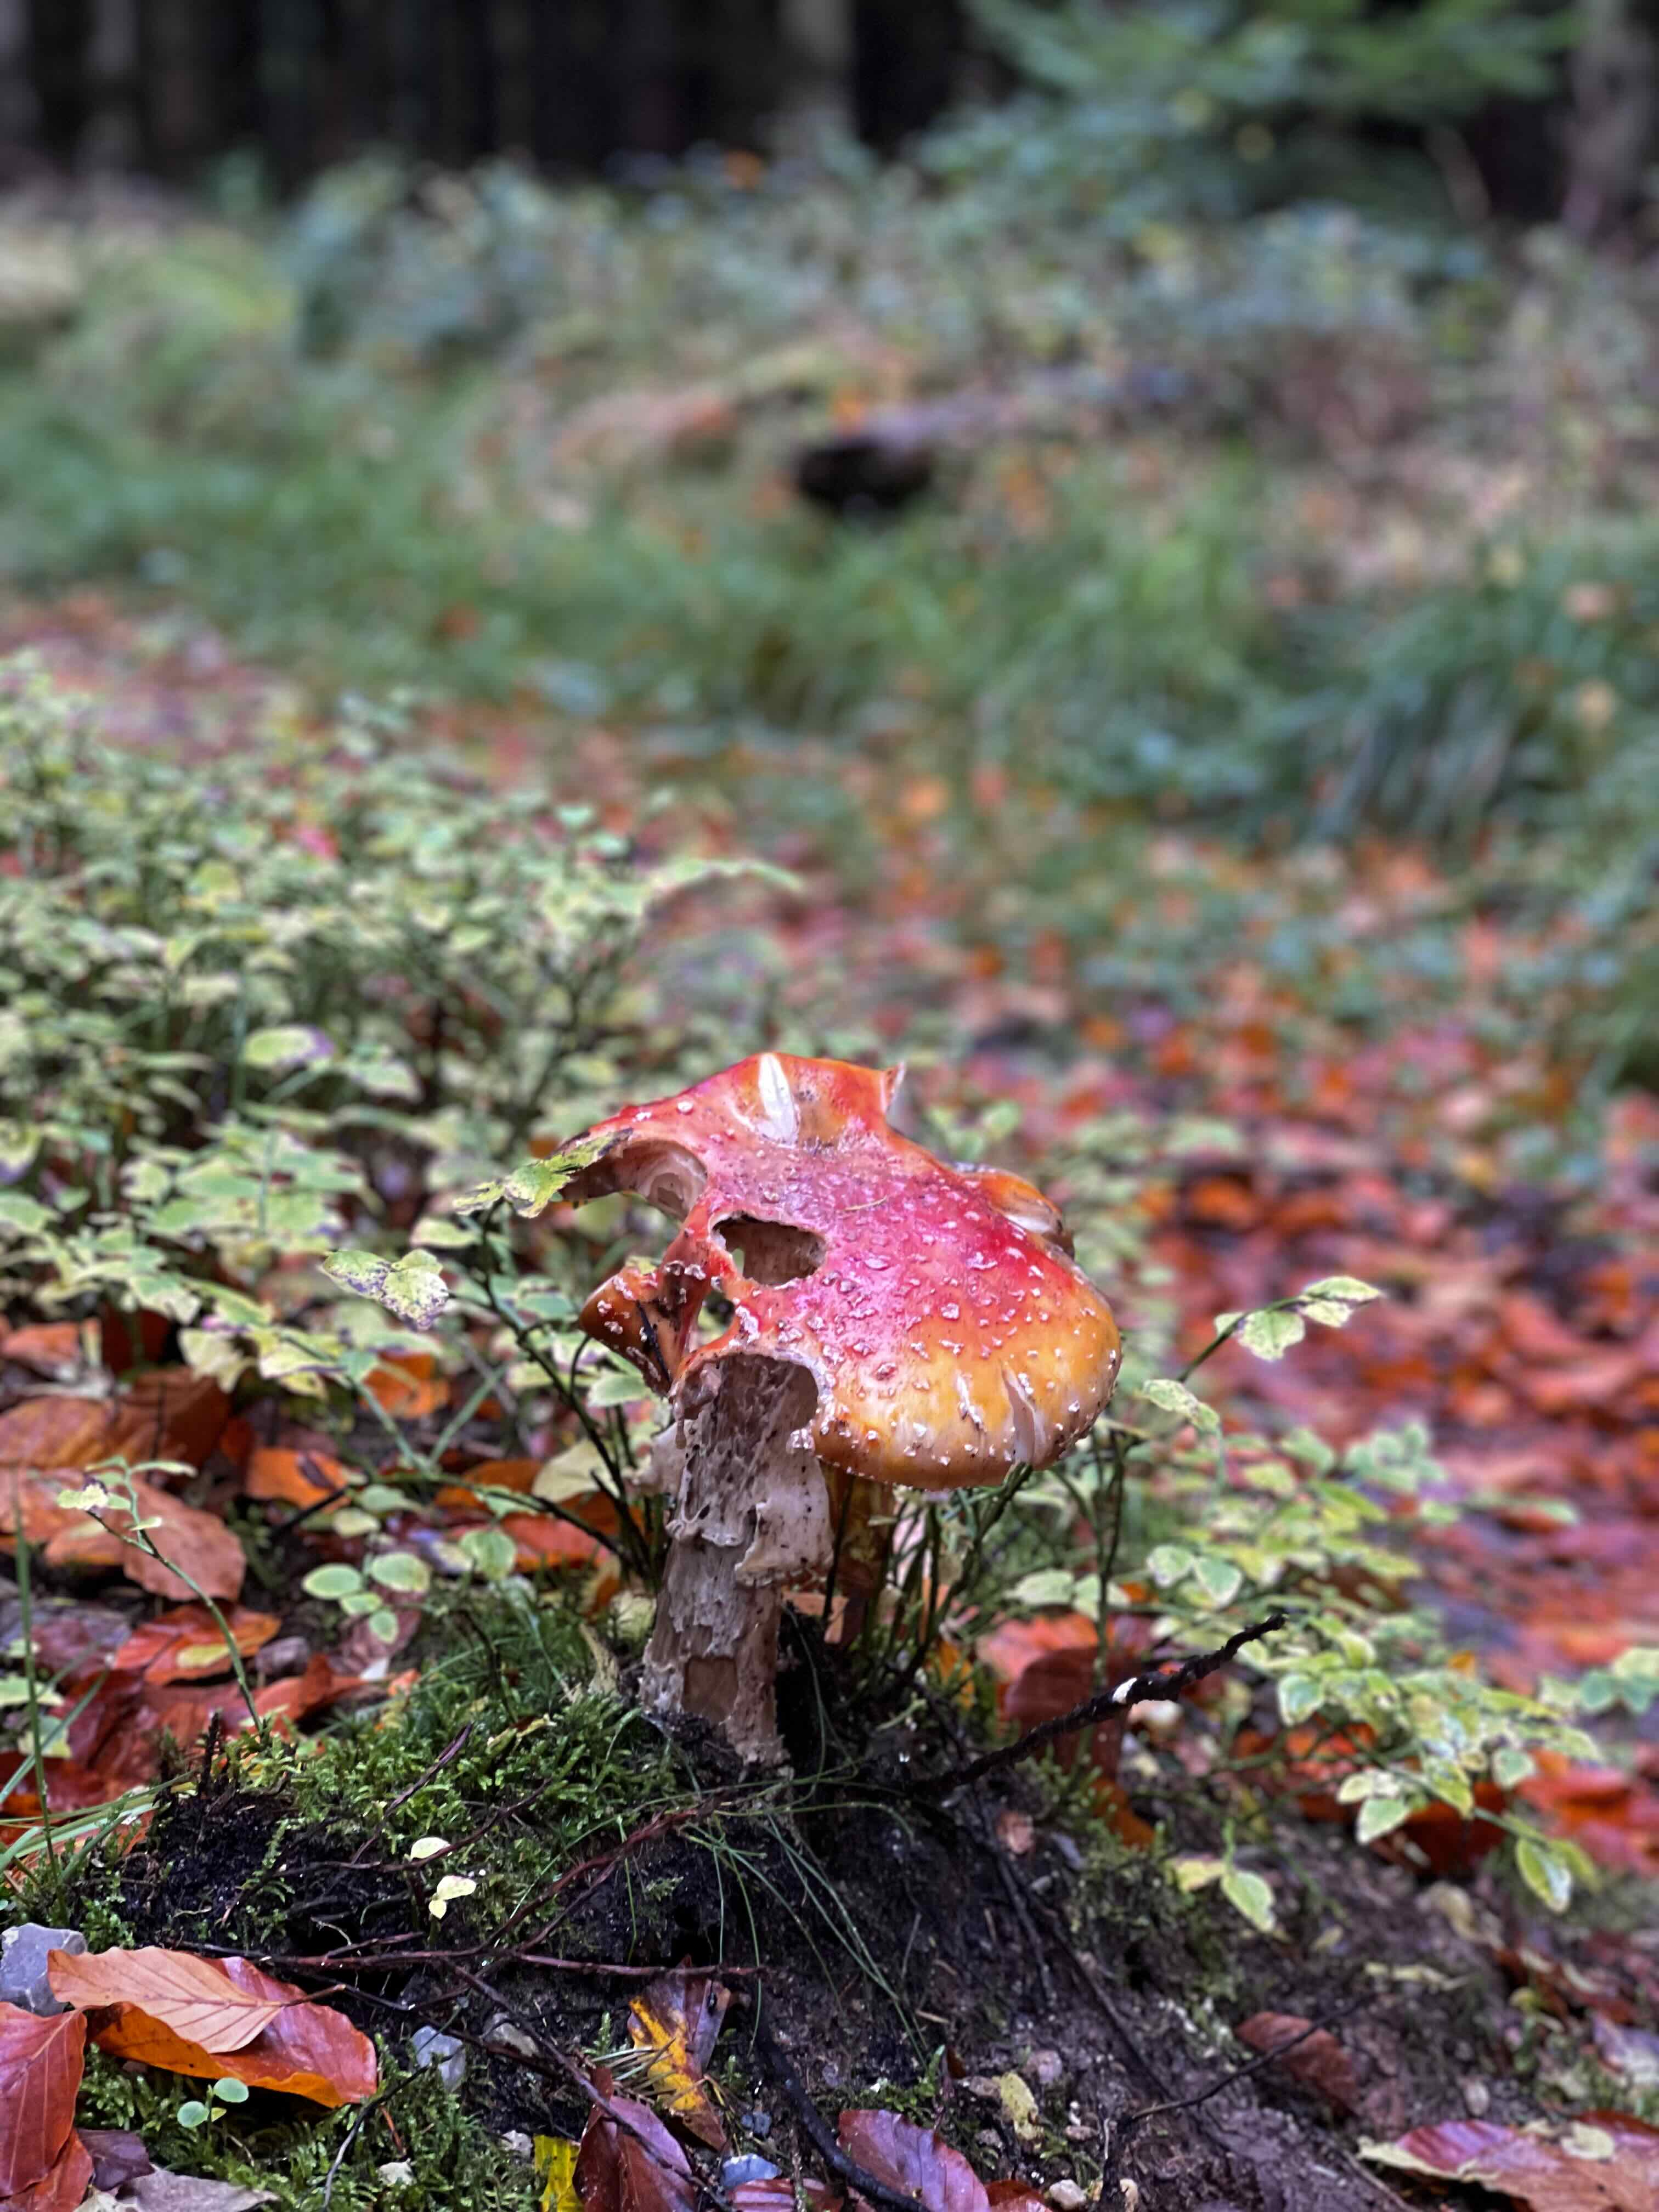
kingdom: Fungi
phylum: Basidiomycota
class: Agaricomycetes
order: Agaricales
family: Amanitaceae
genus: Amanita
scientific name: Amanita muscaria
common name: rød fluesvamp
